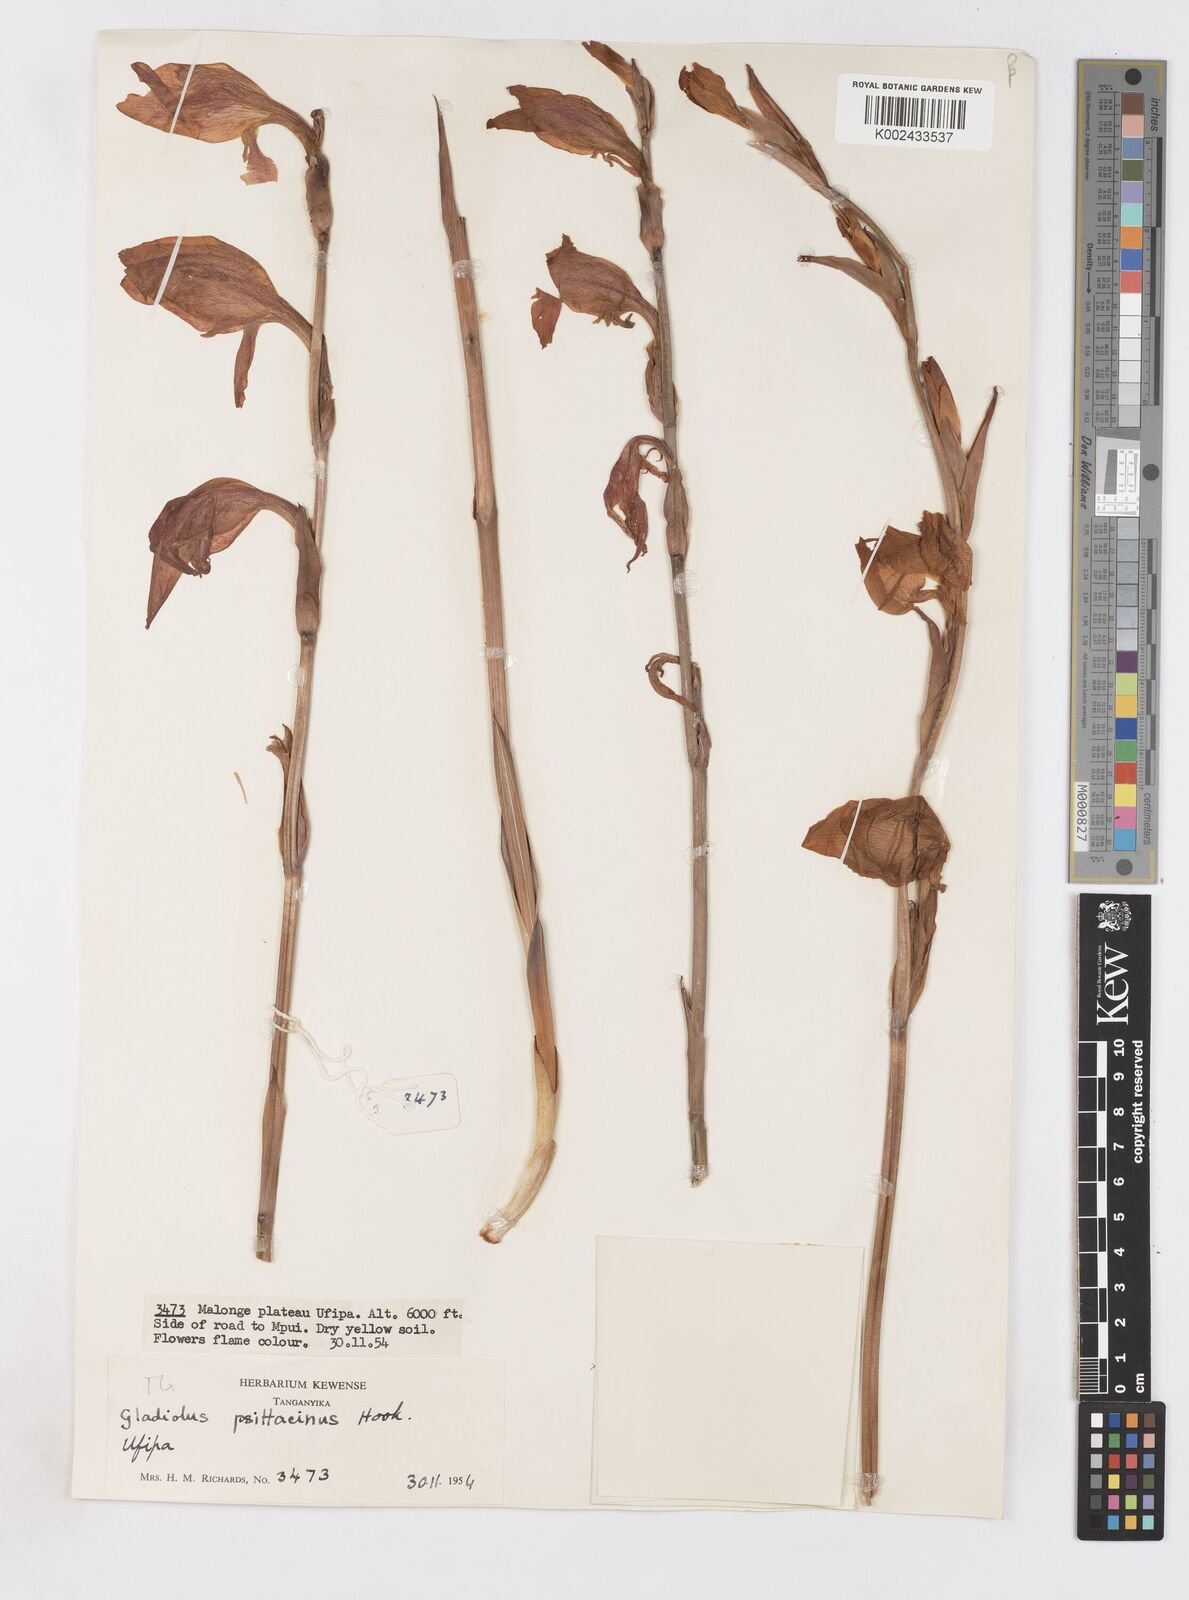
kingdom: Plantae
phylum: Tracheophyta
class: Liliopsida
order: Asparagales
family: Iridaceae
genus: Gladiolus
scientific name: Gladiolus dalenii
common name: Cornflag
